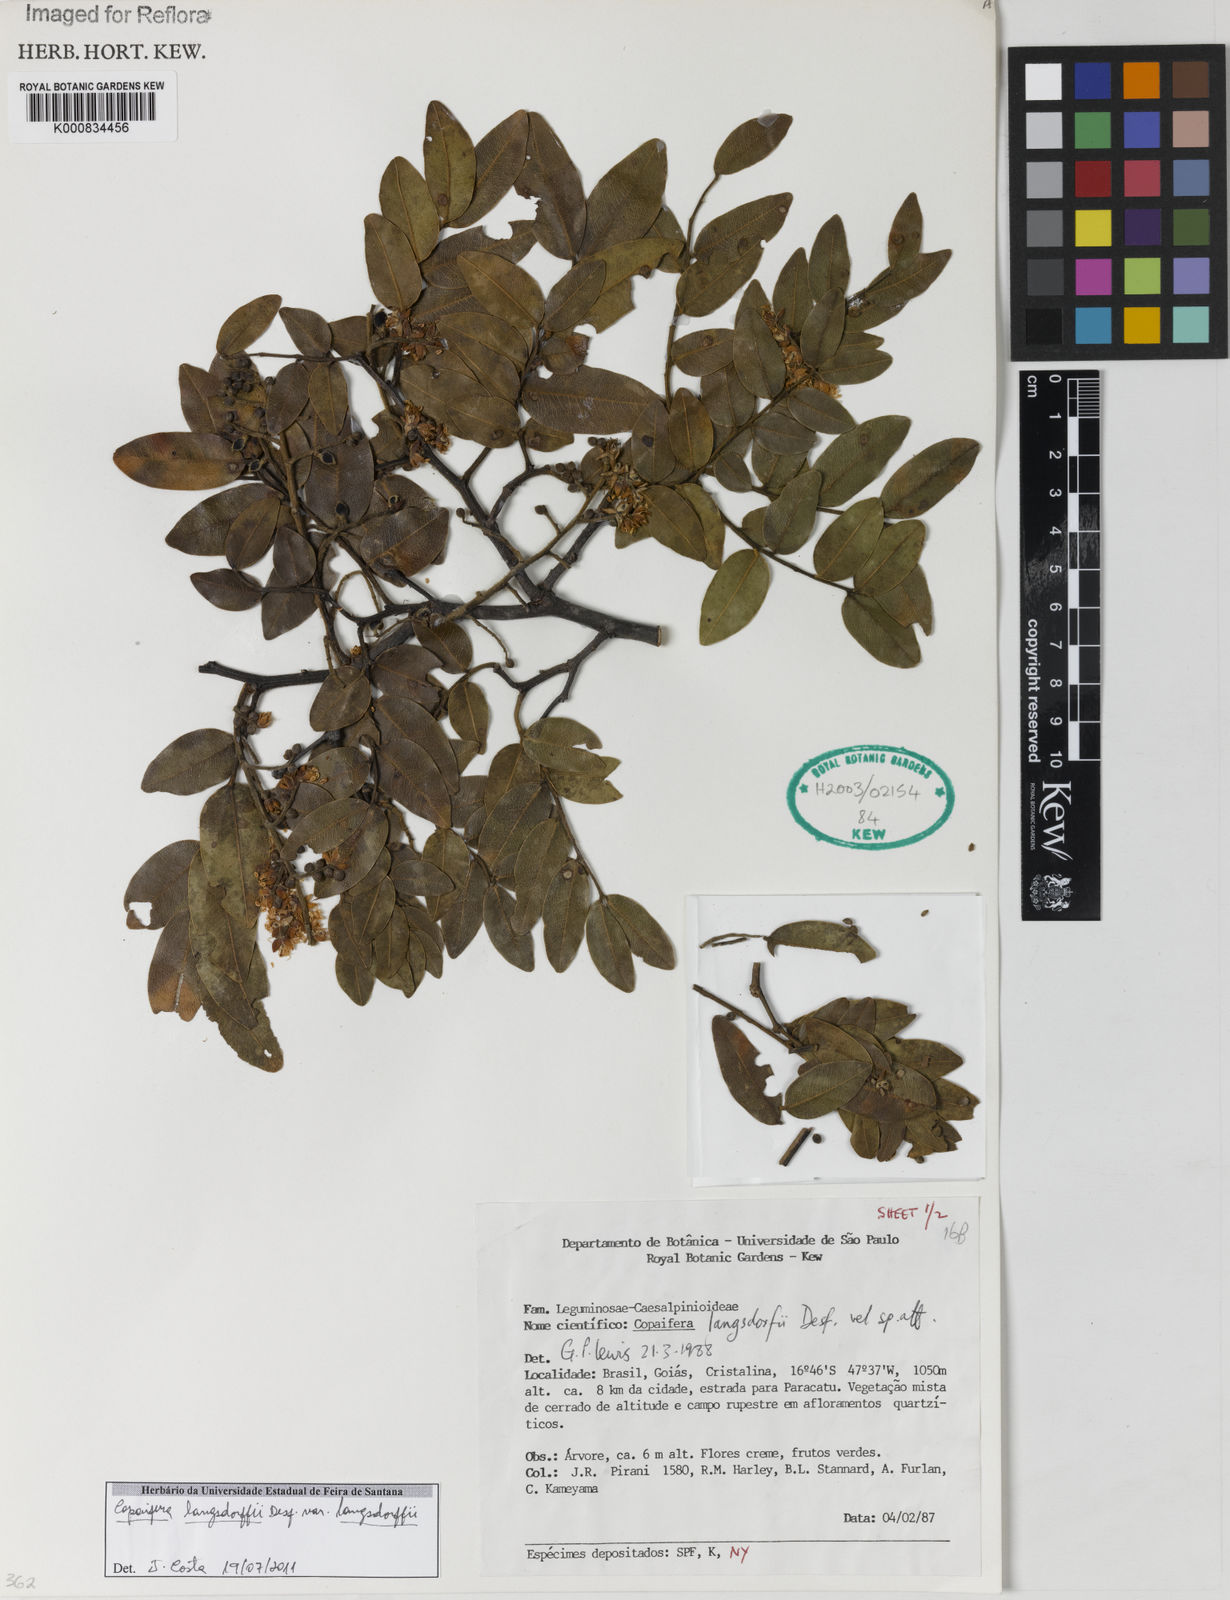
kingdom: Plantae
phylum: Tracheophyta
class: Magnoliopsida
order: Fabales
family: Fabaceae
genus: Copaifera
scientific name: Copaifera langsdorffii
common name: Brazilian diesel tree
